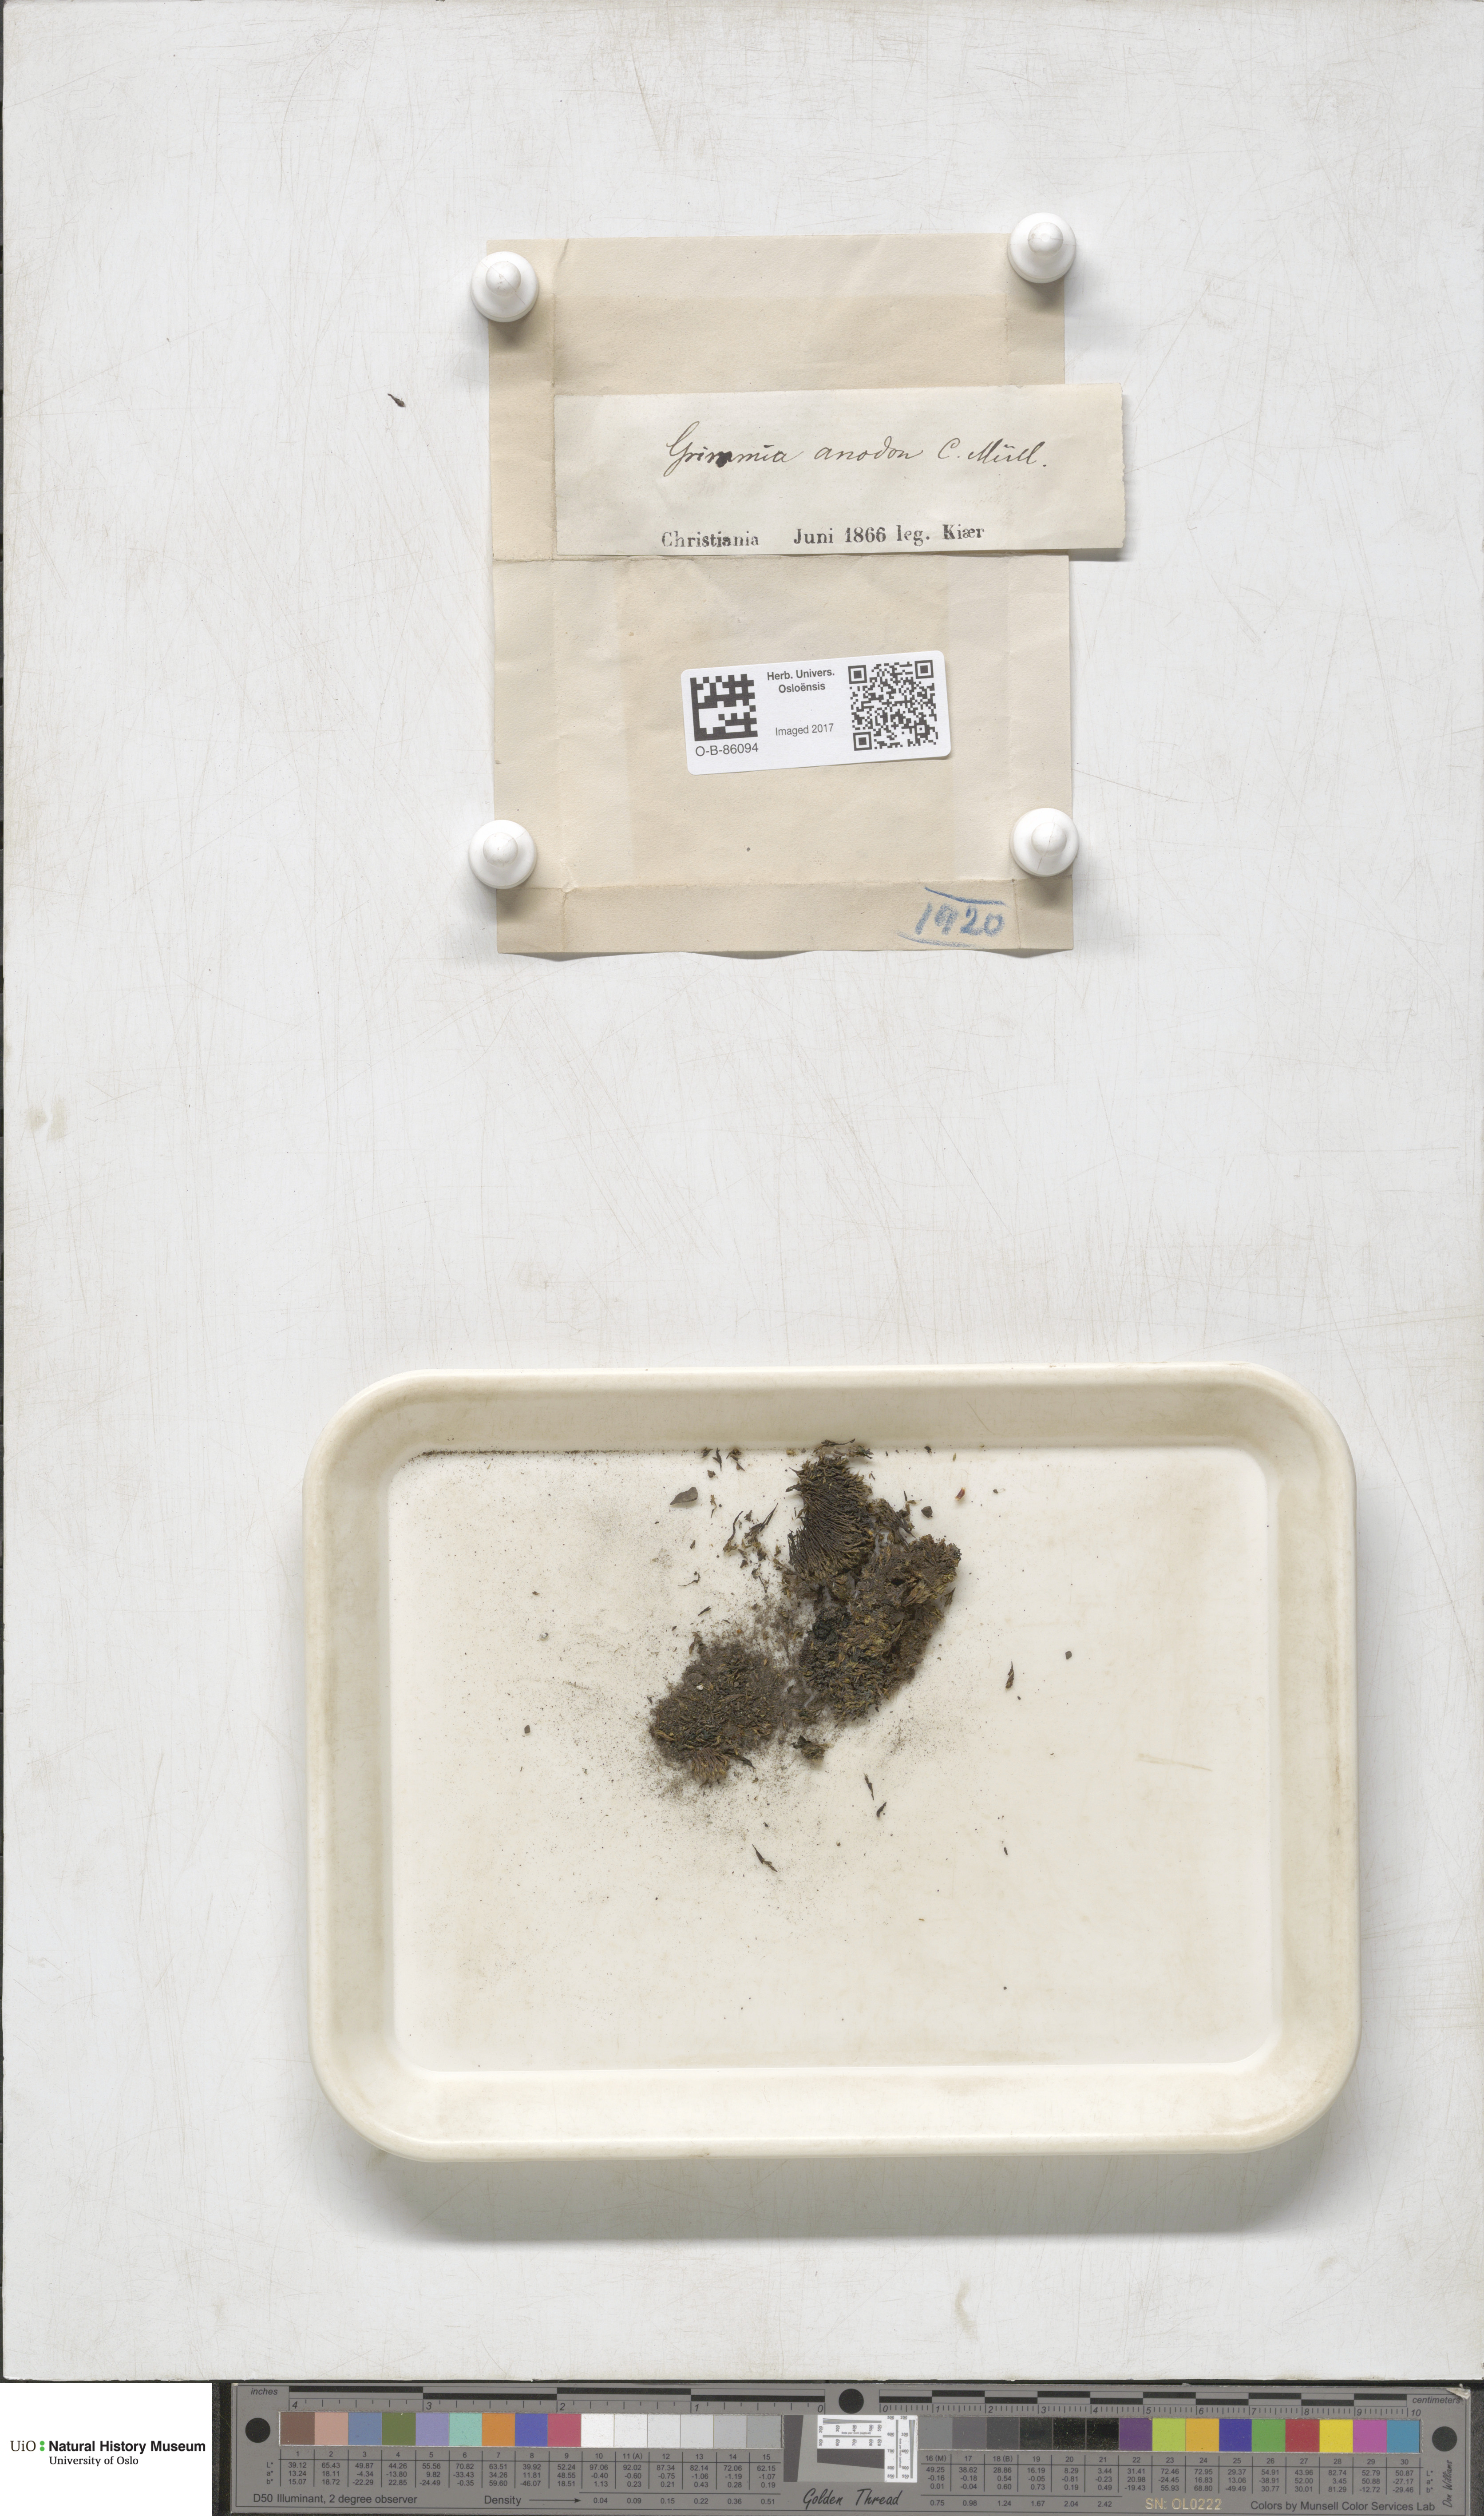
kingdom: Plantae
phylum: Bryophyta
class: Bryopsida
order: Grimmiales
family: Grimmiaceae
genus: Grimmia
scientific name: Grimmia anodon
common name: Toothless grimmia
